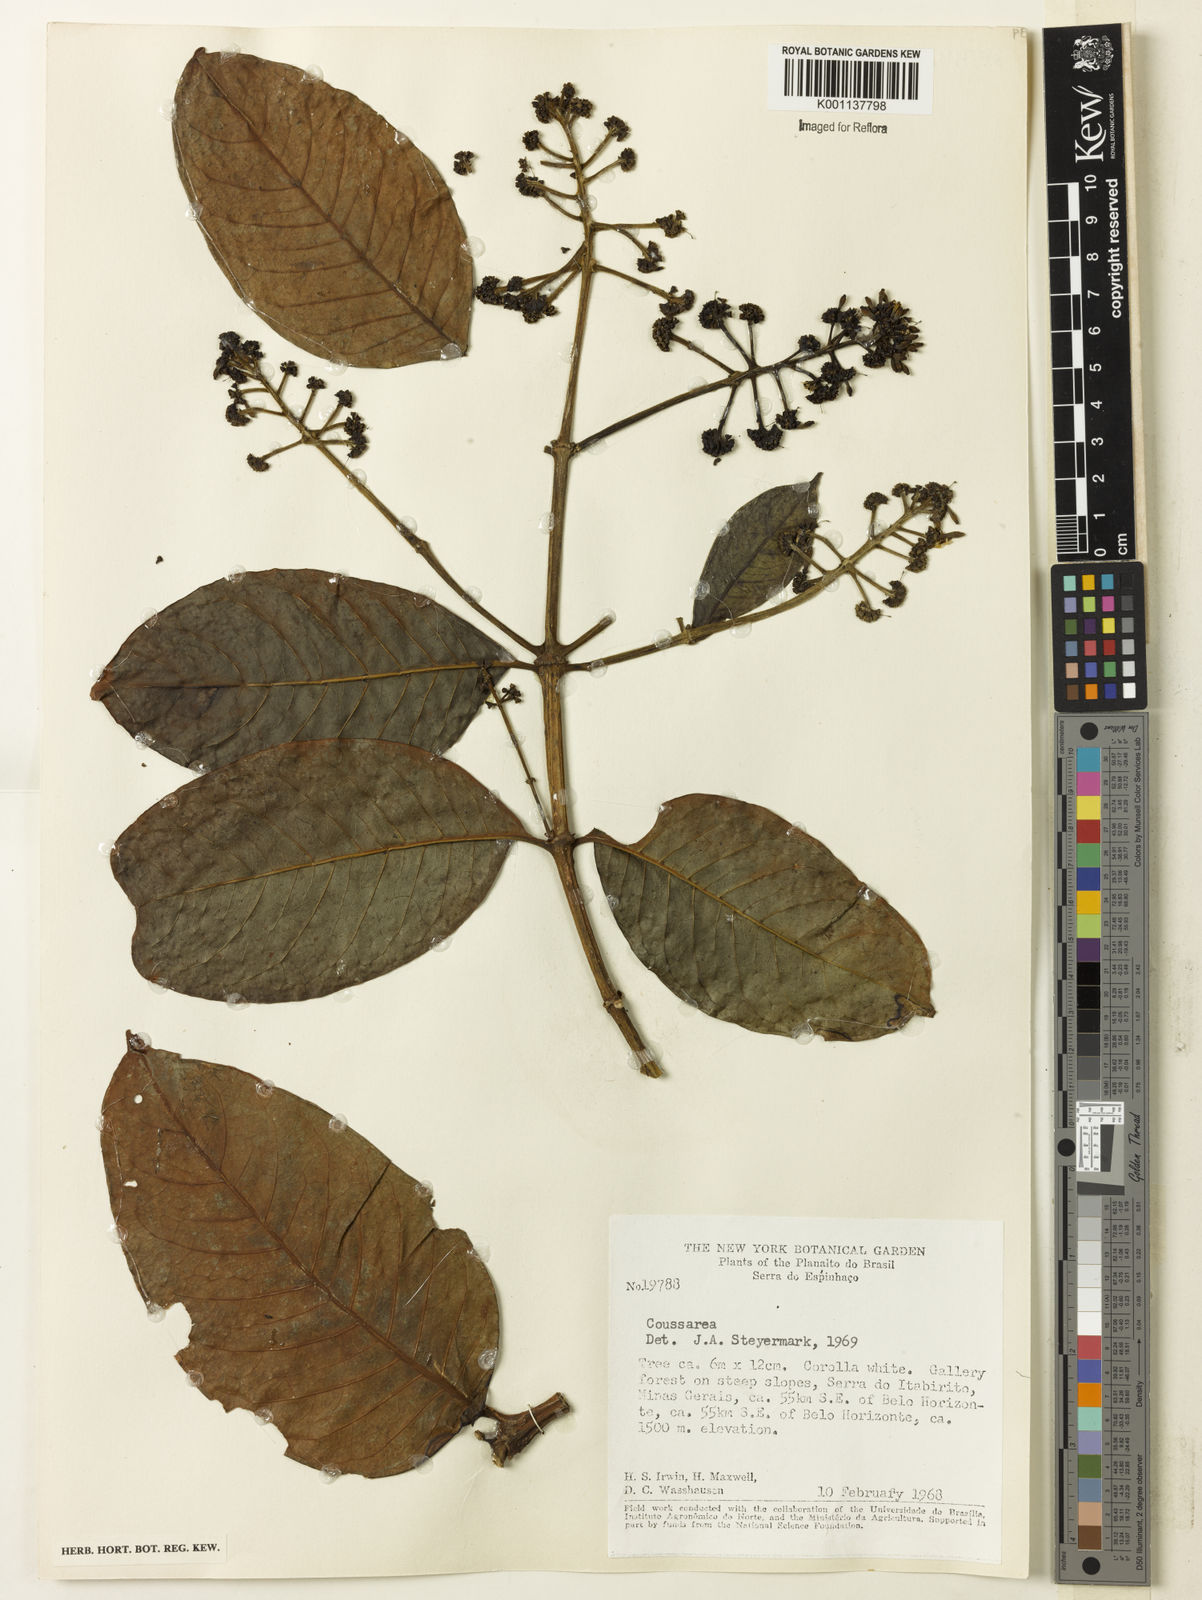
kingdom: Plantae
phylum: Tracheophyta
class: Magnoliopsida
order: Gentianales
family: Rubiaceae
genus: Coussarea
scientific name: Coussarea
